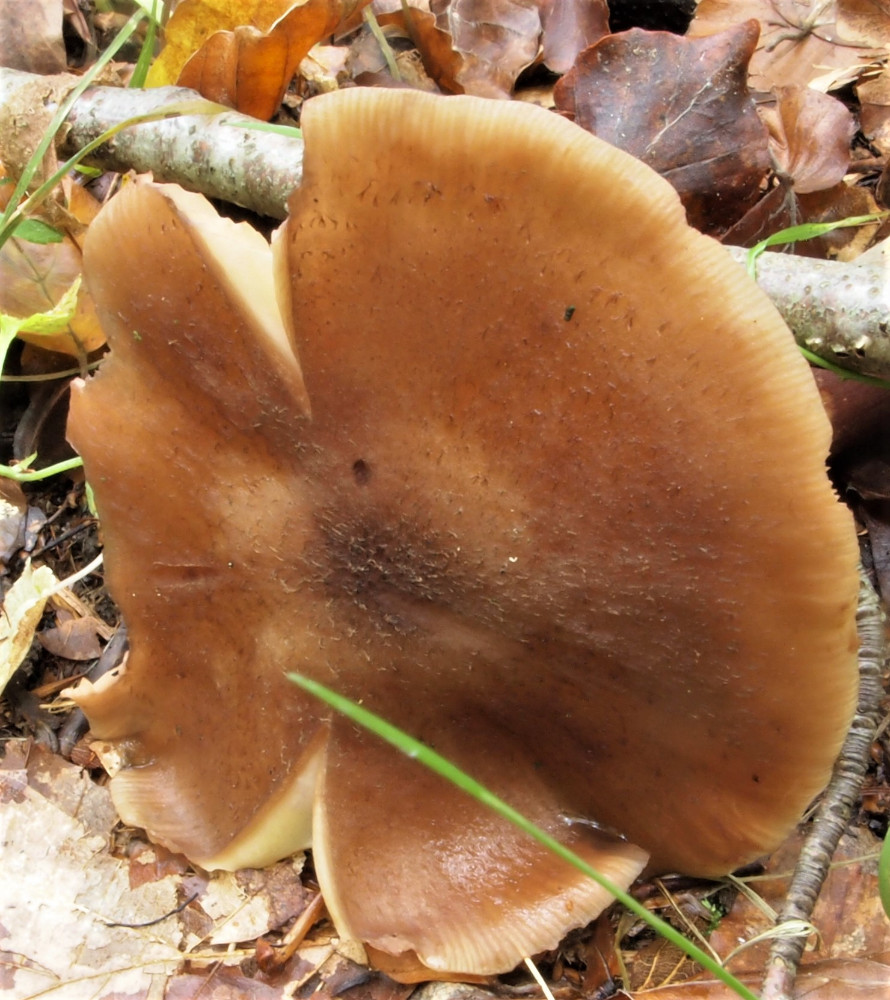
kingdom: Fungi
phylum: Basidiomycota
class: Agaricomycetes
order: Agaricales
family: Physalacriaceae
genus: Armillaria
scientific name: Armillaria lutea
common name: køllestokket honningsvamp
